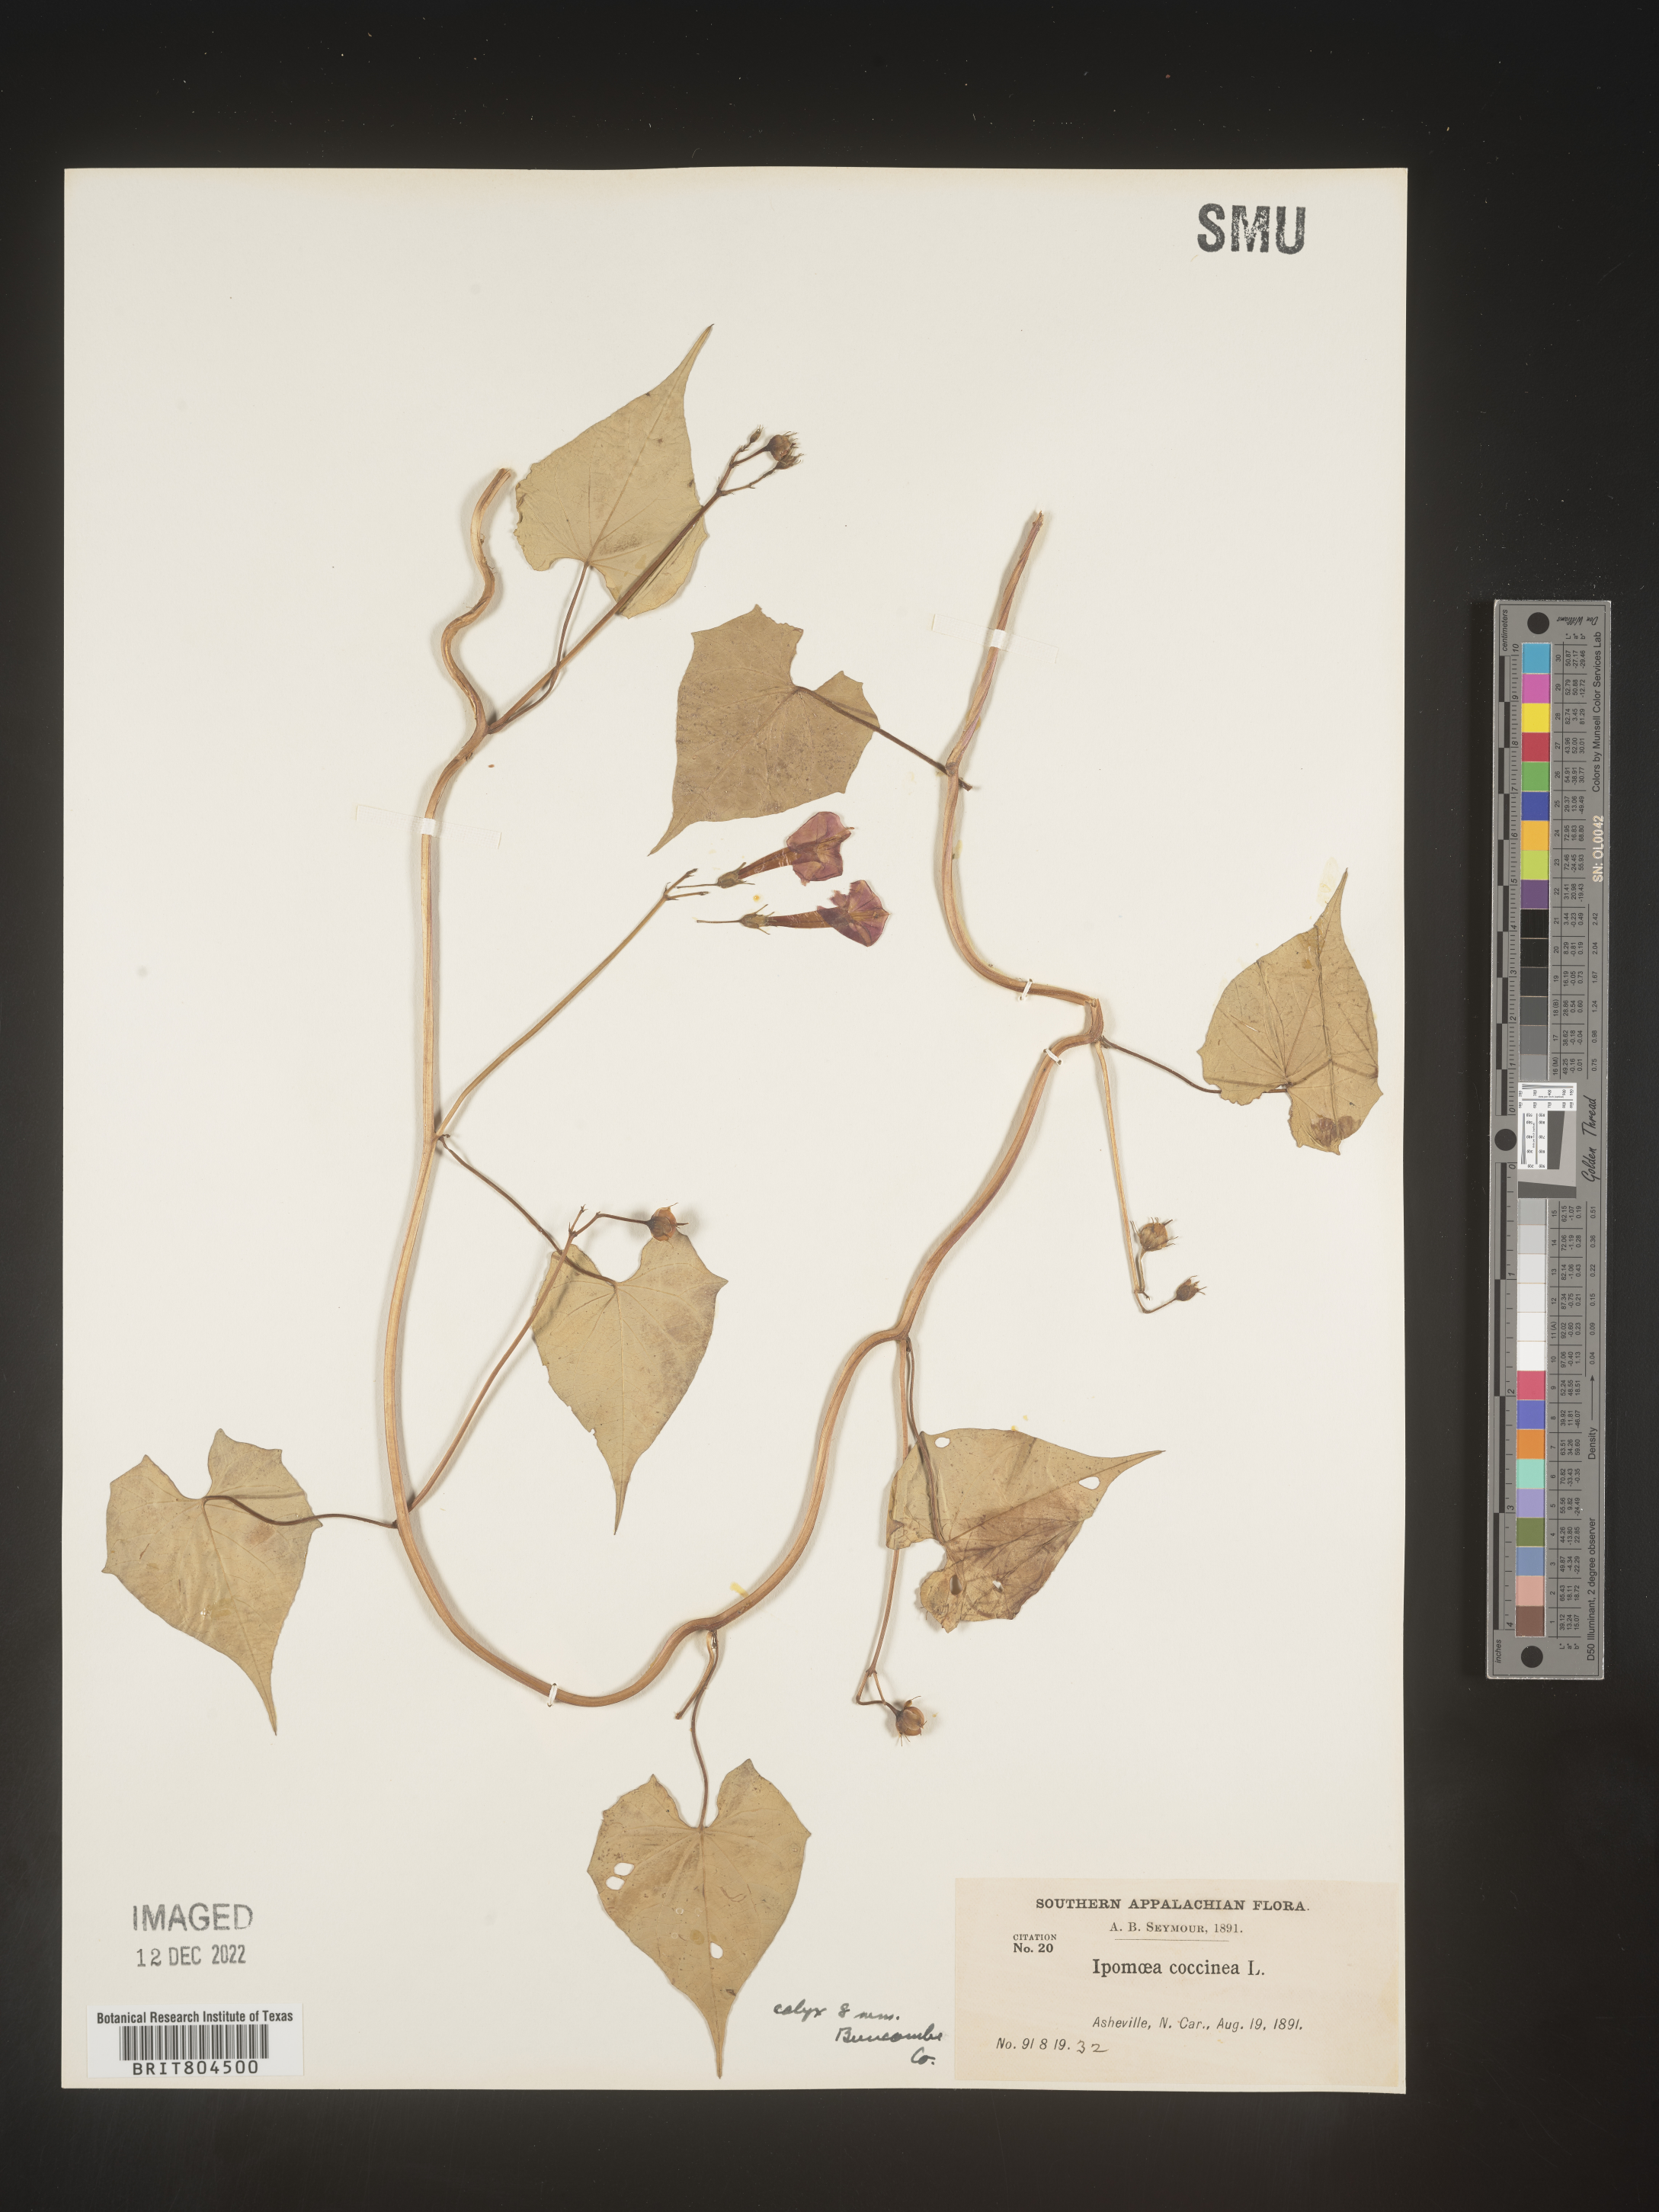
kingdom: Plantae
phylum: Tracheophyta
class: Magnoliopsida
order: Solanales
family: Convolvulaceae
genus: Ipomoea
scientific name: Ipomoea coccinea
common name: Red morning-glory
